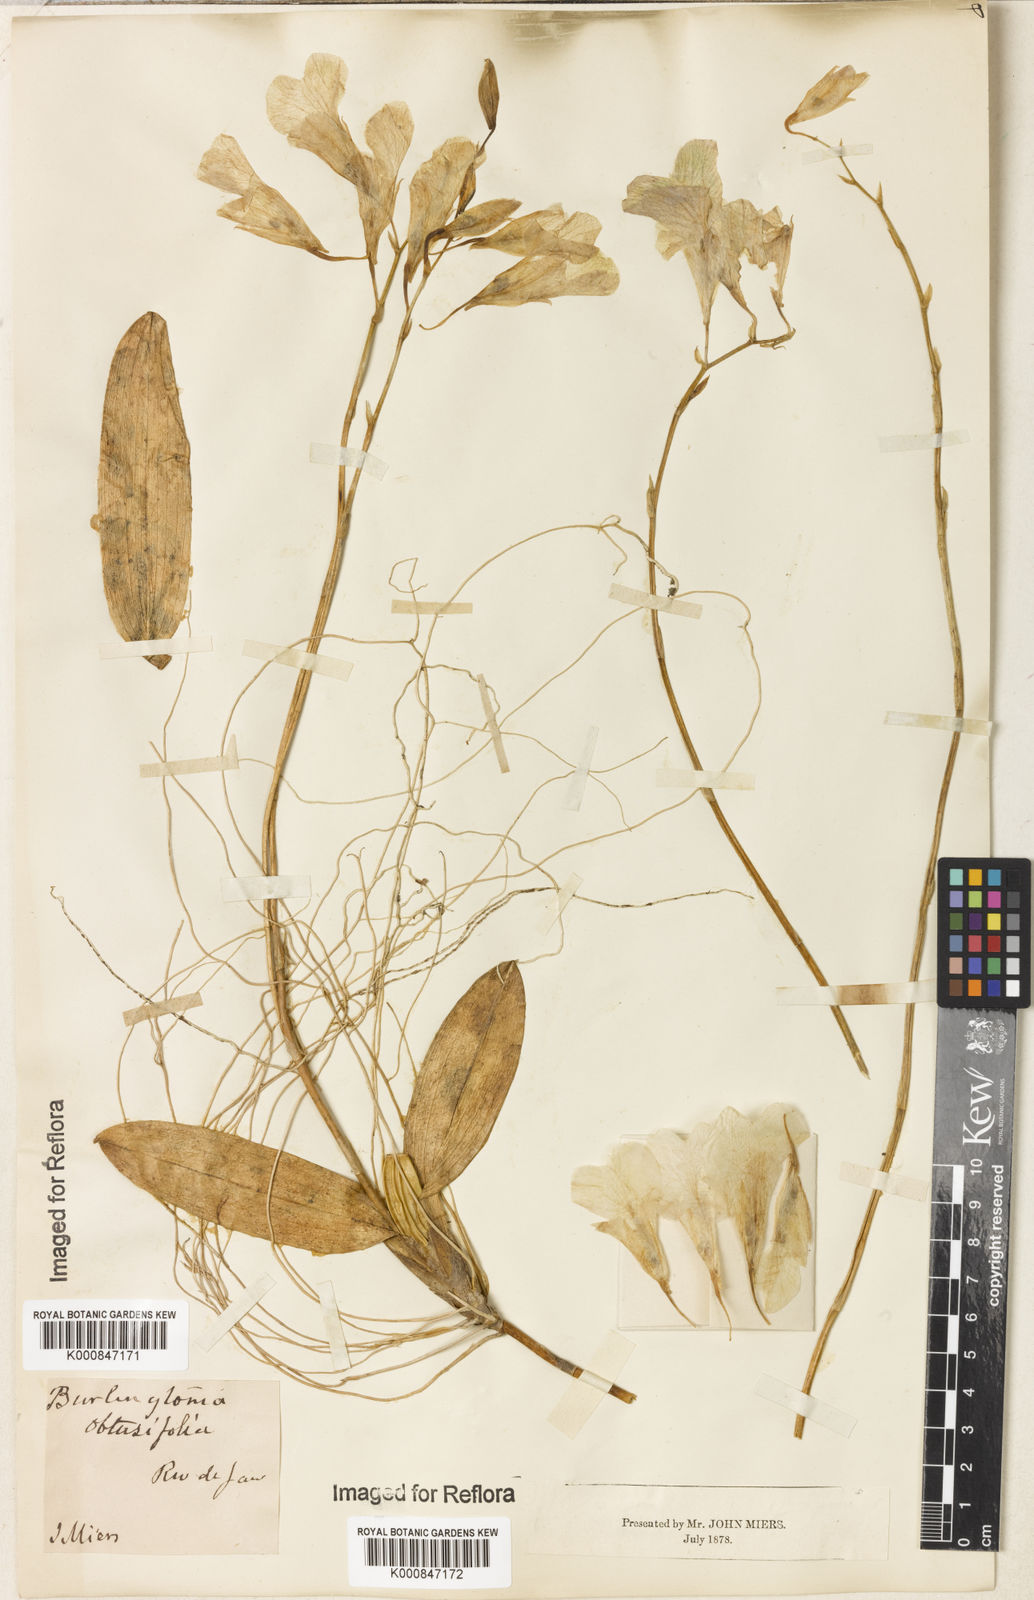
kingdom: Plantae
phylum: Tracheophyta
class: Liliopsida
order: Asparagales
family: Orchidaceae
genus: Rodriguezia
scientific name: Rodriguezia obtusifolia
